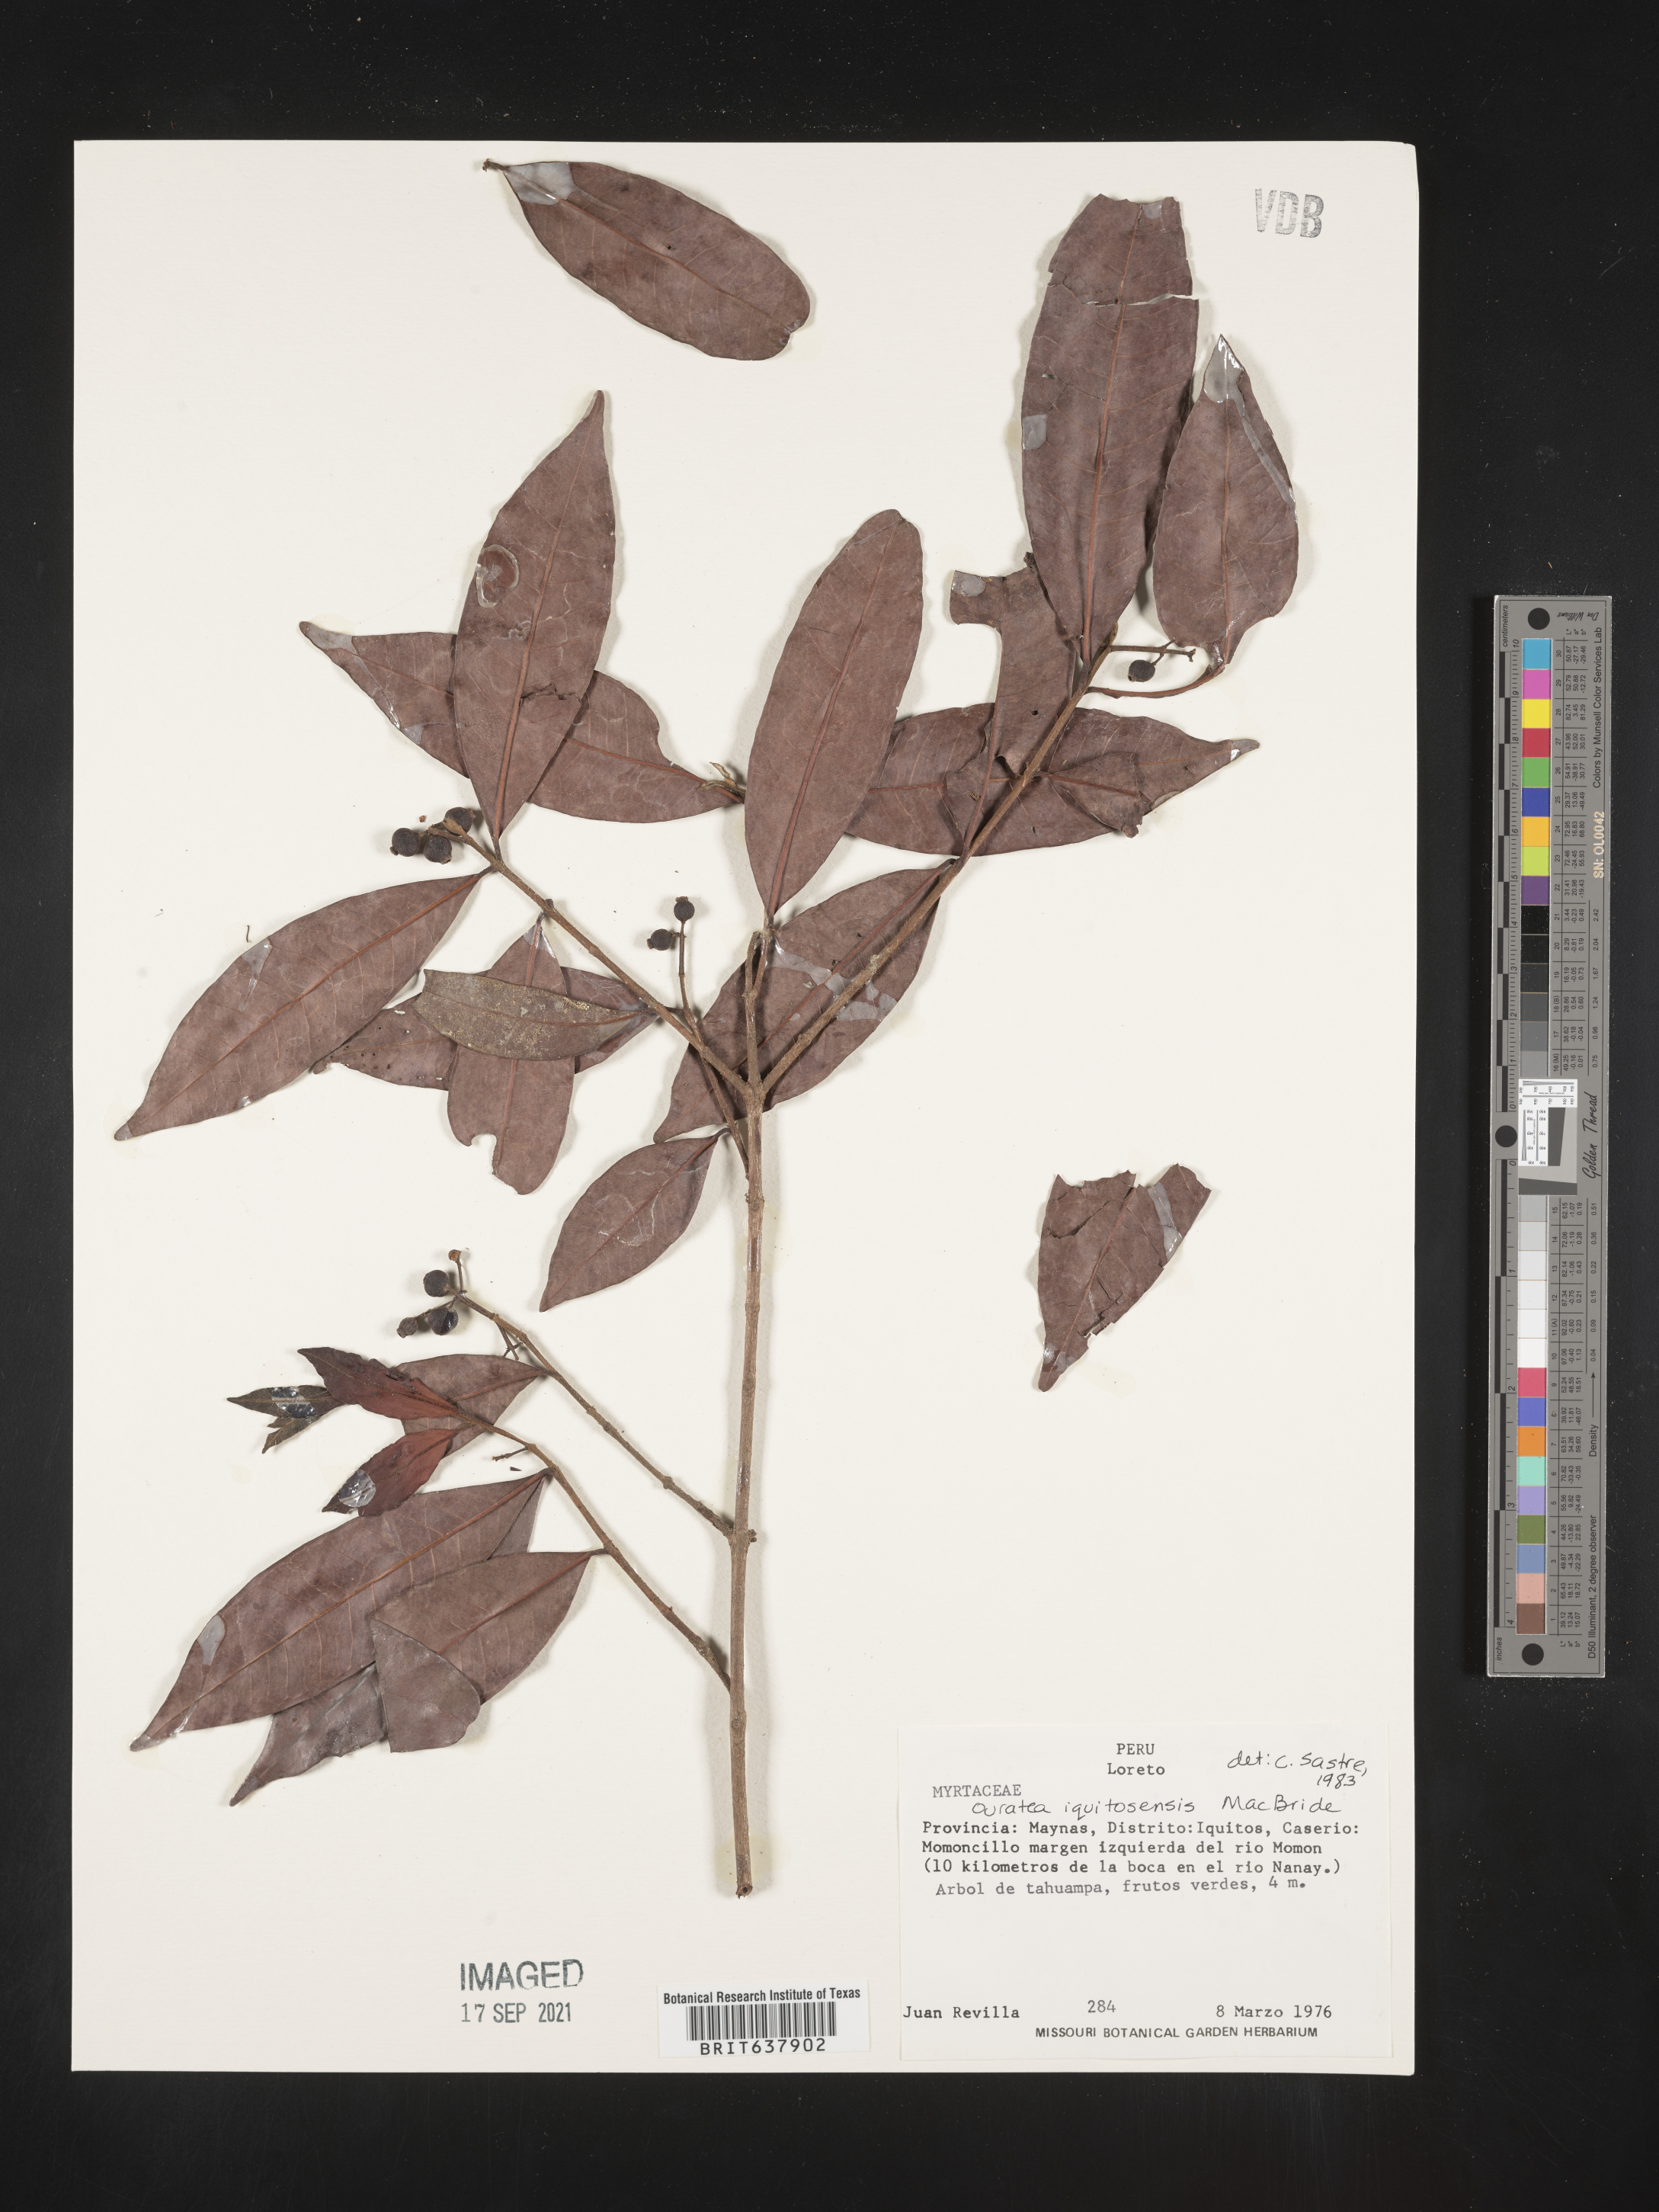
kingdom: Plantae
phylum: Tracheophyta
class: Magnoliopsida
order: Malpighiales
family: Ochnaceae
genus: Ouratea
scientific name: Ouratea
